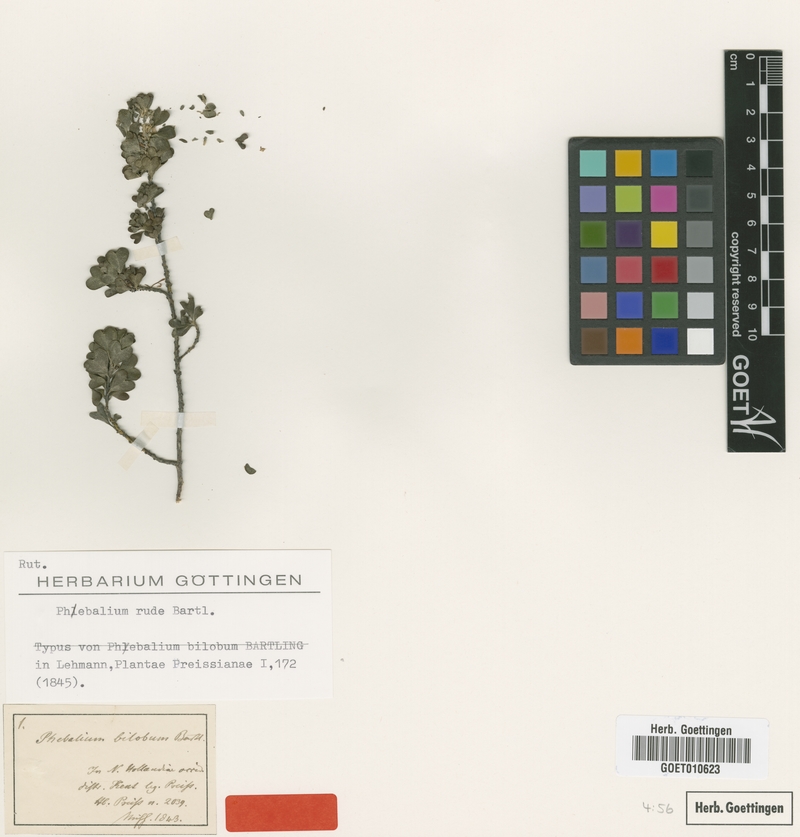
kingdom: Plantae
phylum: Tracheophyta
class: Magnoliopsida
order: Sapindales
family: Rutaceae
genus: Rhadinothamnus
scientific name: Rhadinothamnus rudis
